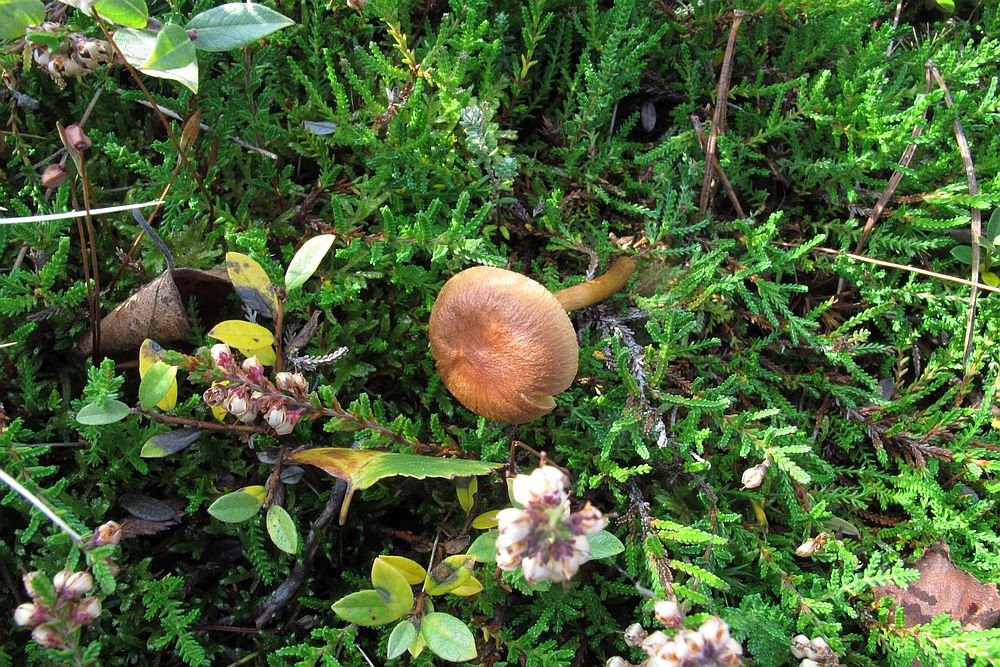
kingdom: Fungi
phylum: Basidiomycota
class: Agaricomycetes
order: Agaricales
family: Cortinariaceae
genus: Cortinarius
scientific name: Cortinarius
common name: gulbladet slørhat
